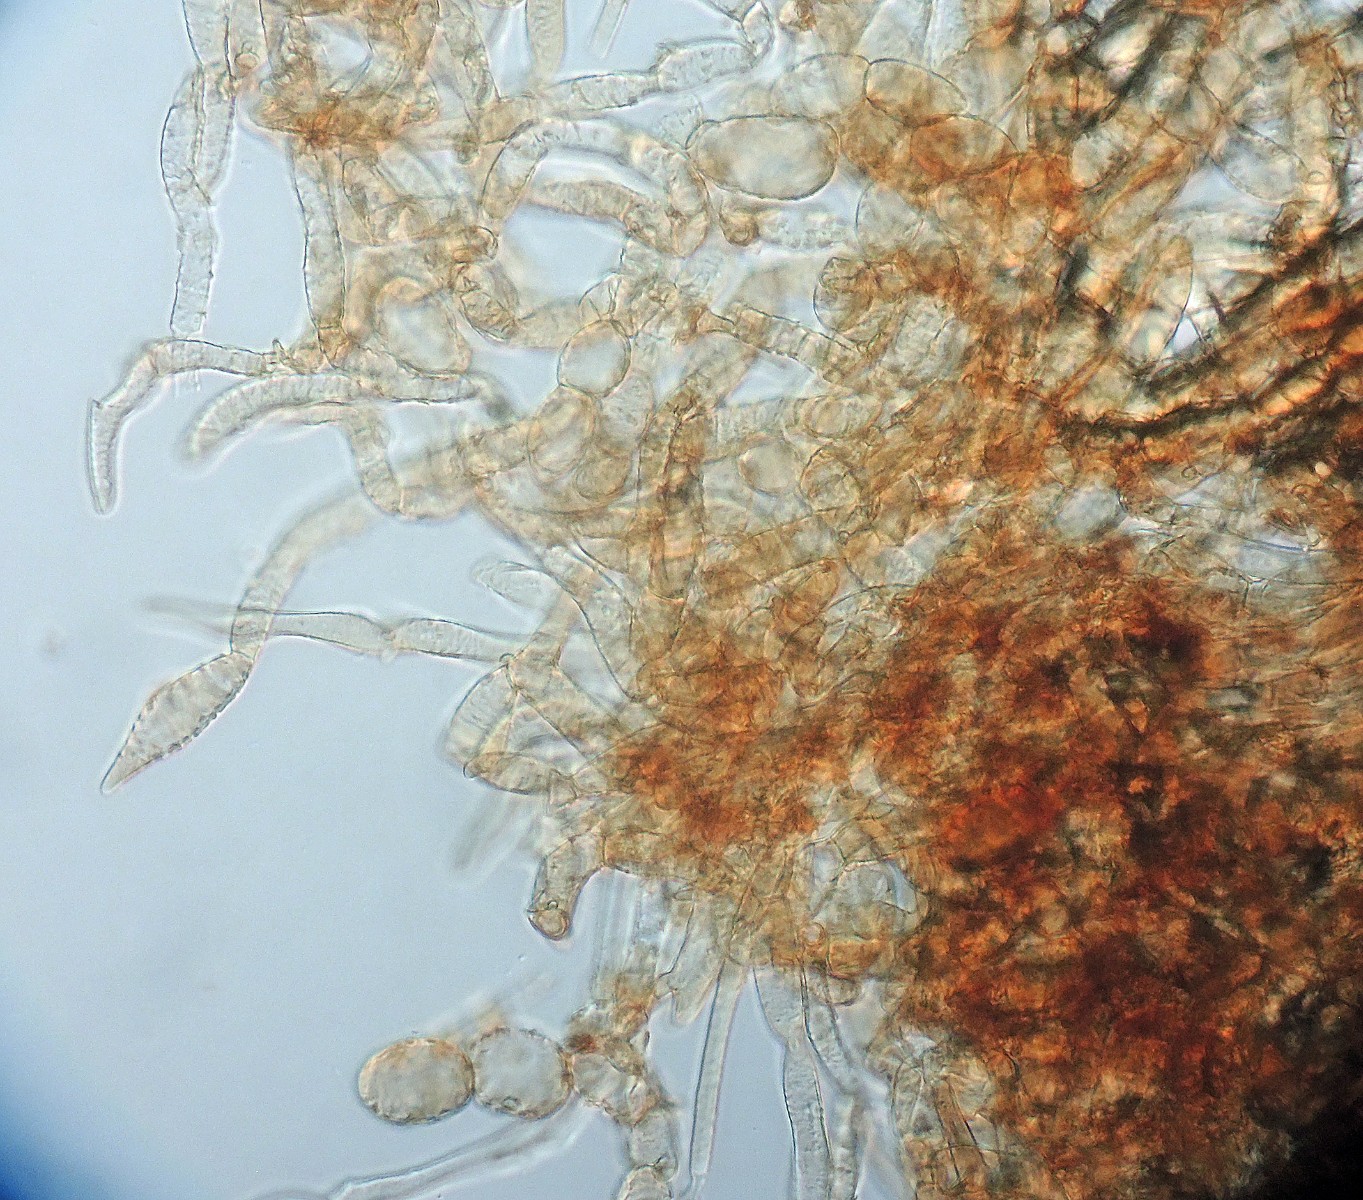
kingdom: Fungi
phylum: Basidiomycota
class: Agaricomycetes
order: Agaricales
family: Tubariaceae
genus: Flammulaster
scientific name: Flammulaster ferrugineus
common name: rustbrun grynskælhat
